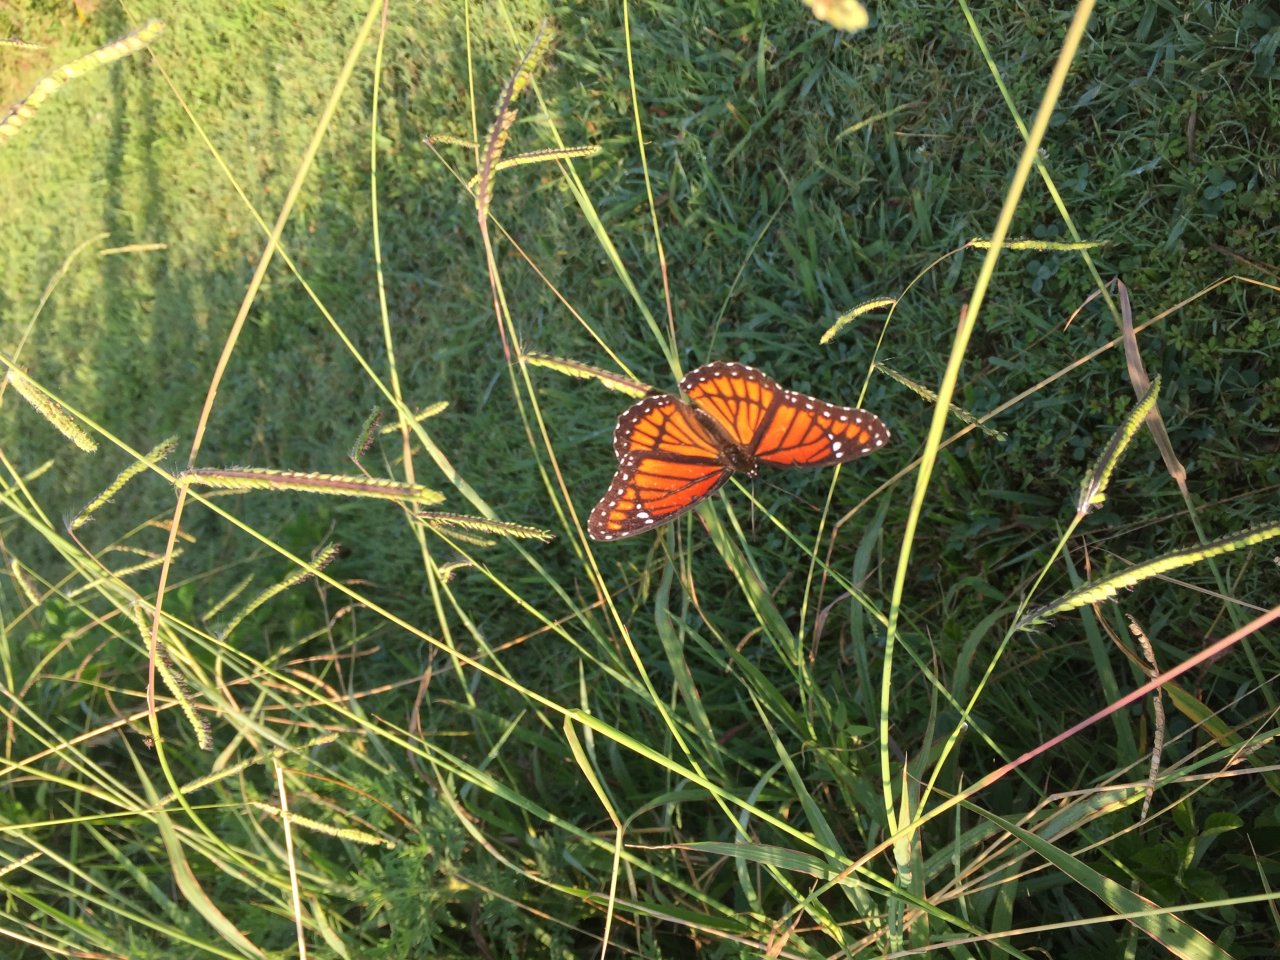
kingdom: Animalia
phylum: Arthropoda
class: Insecta
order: Lepidoptera
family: Nymphalidae
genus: Limenitis
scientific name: Limenitis archippus
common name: Viceroy
